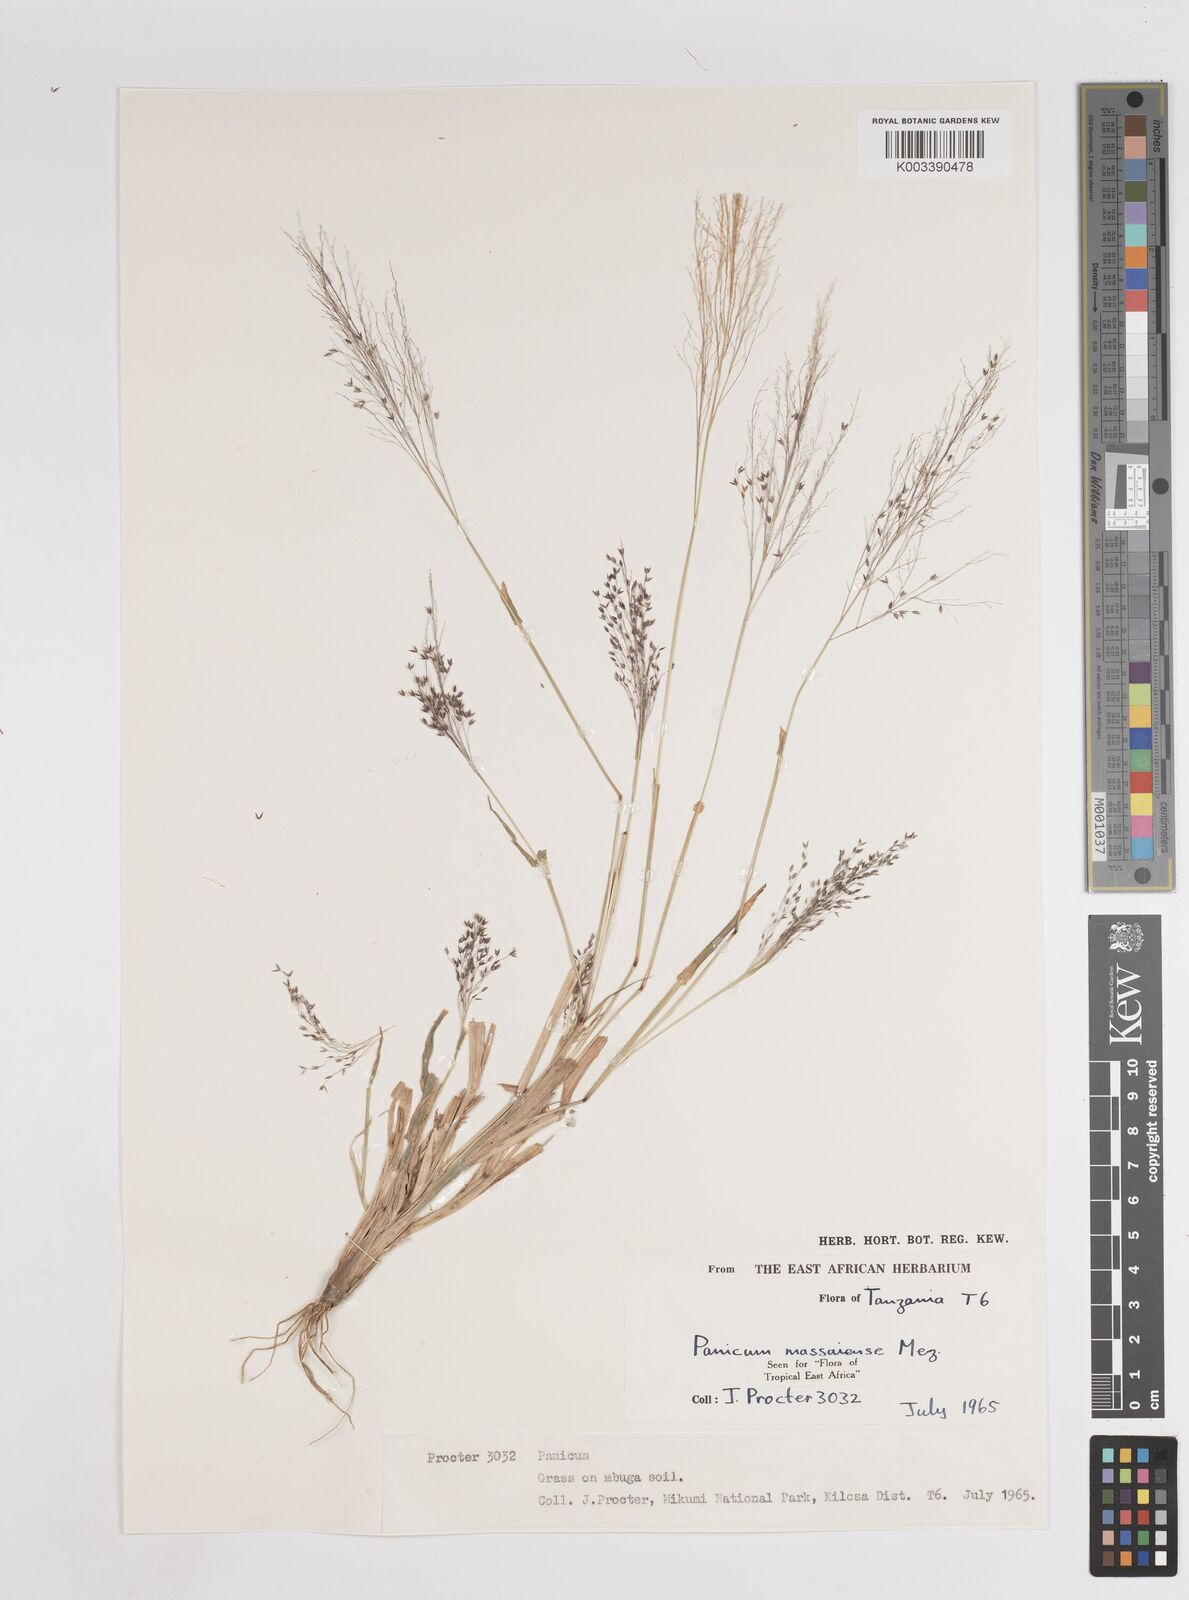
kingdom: Plantae
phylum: Tracheophyta
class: Liliopsida
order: Poales
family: Poaceae
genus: Panicum
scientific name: Panicum massaiense
